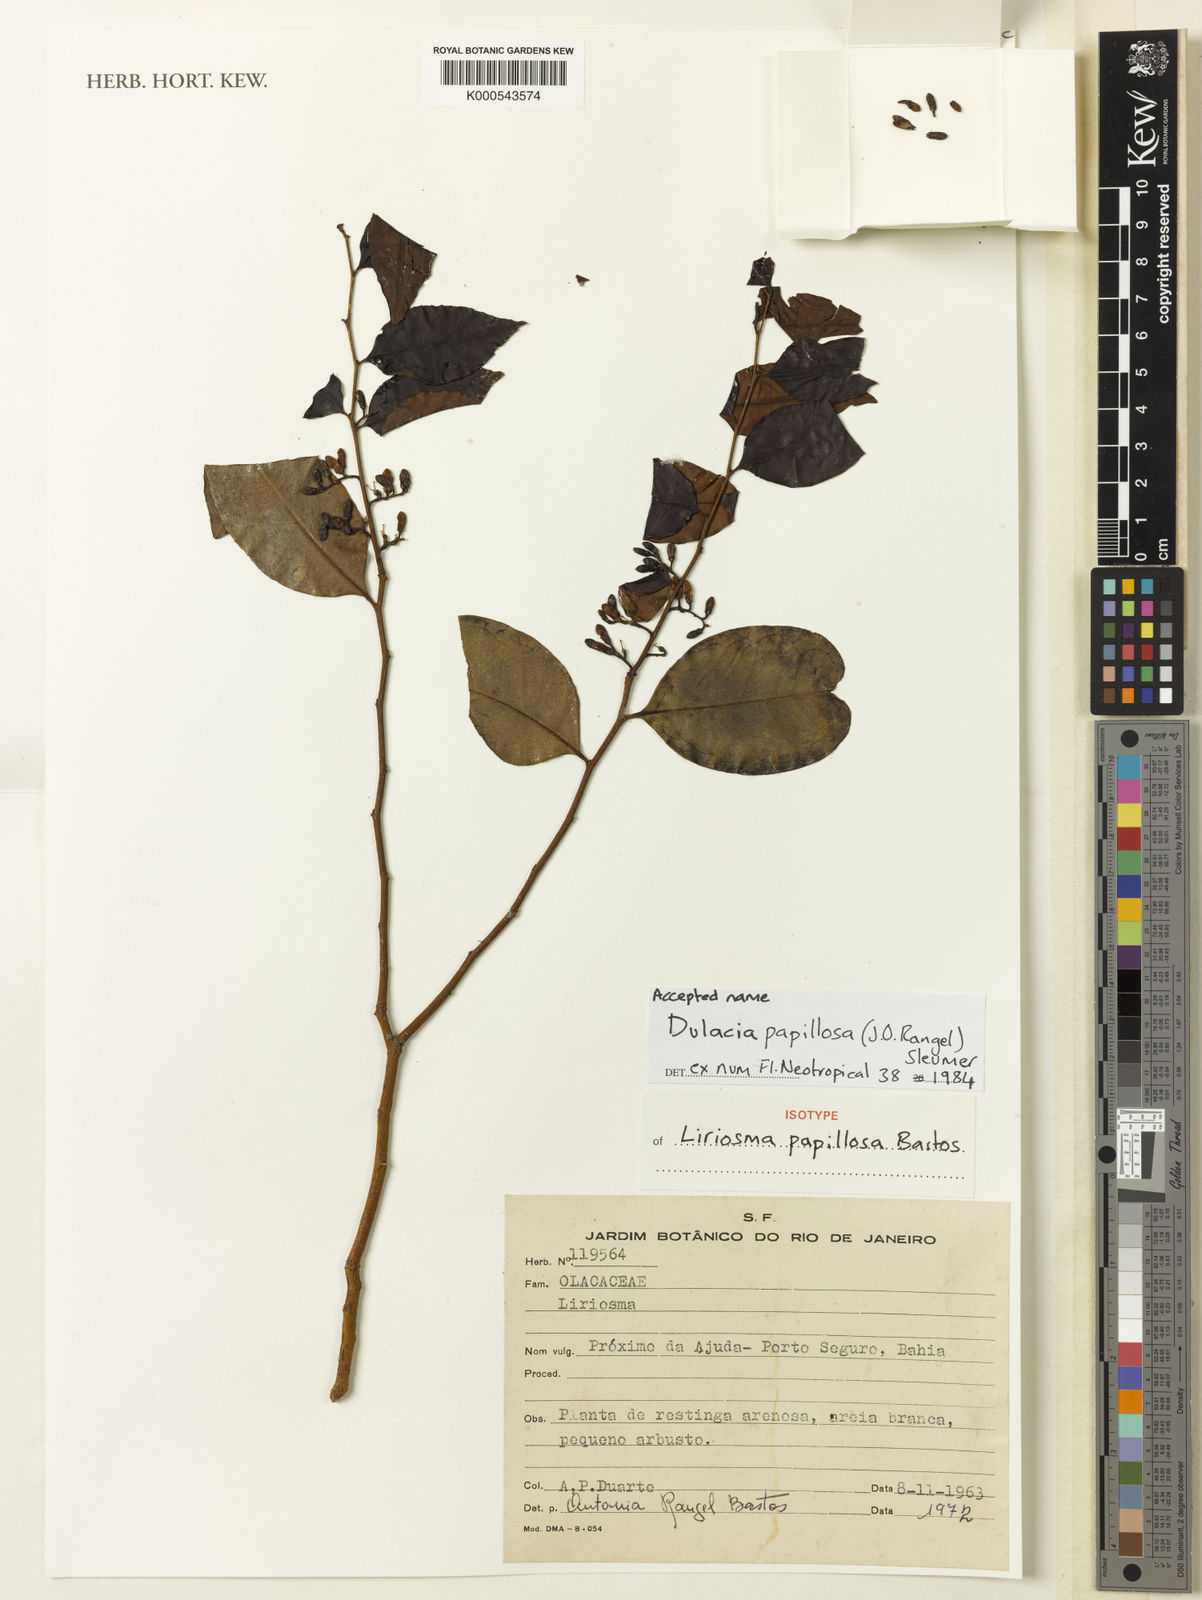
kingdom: Plantae
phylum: Tracheophyta
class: Magnoliopsida
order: Santalales
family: Olacaceae
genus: Dulacia
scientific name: Dulacia papillosa
